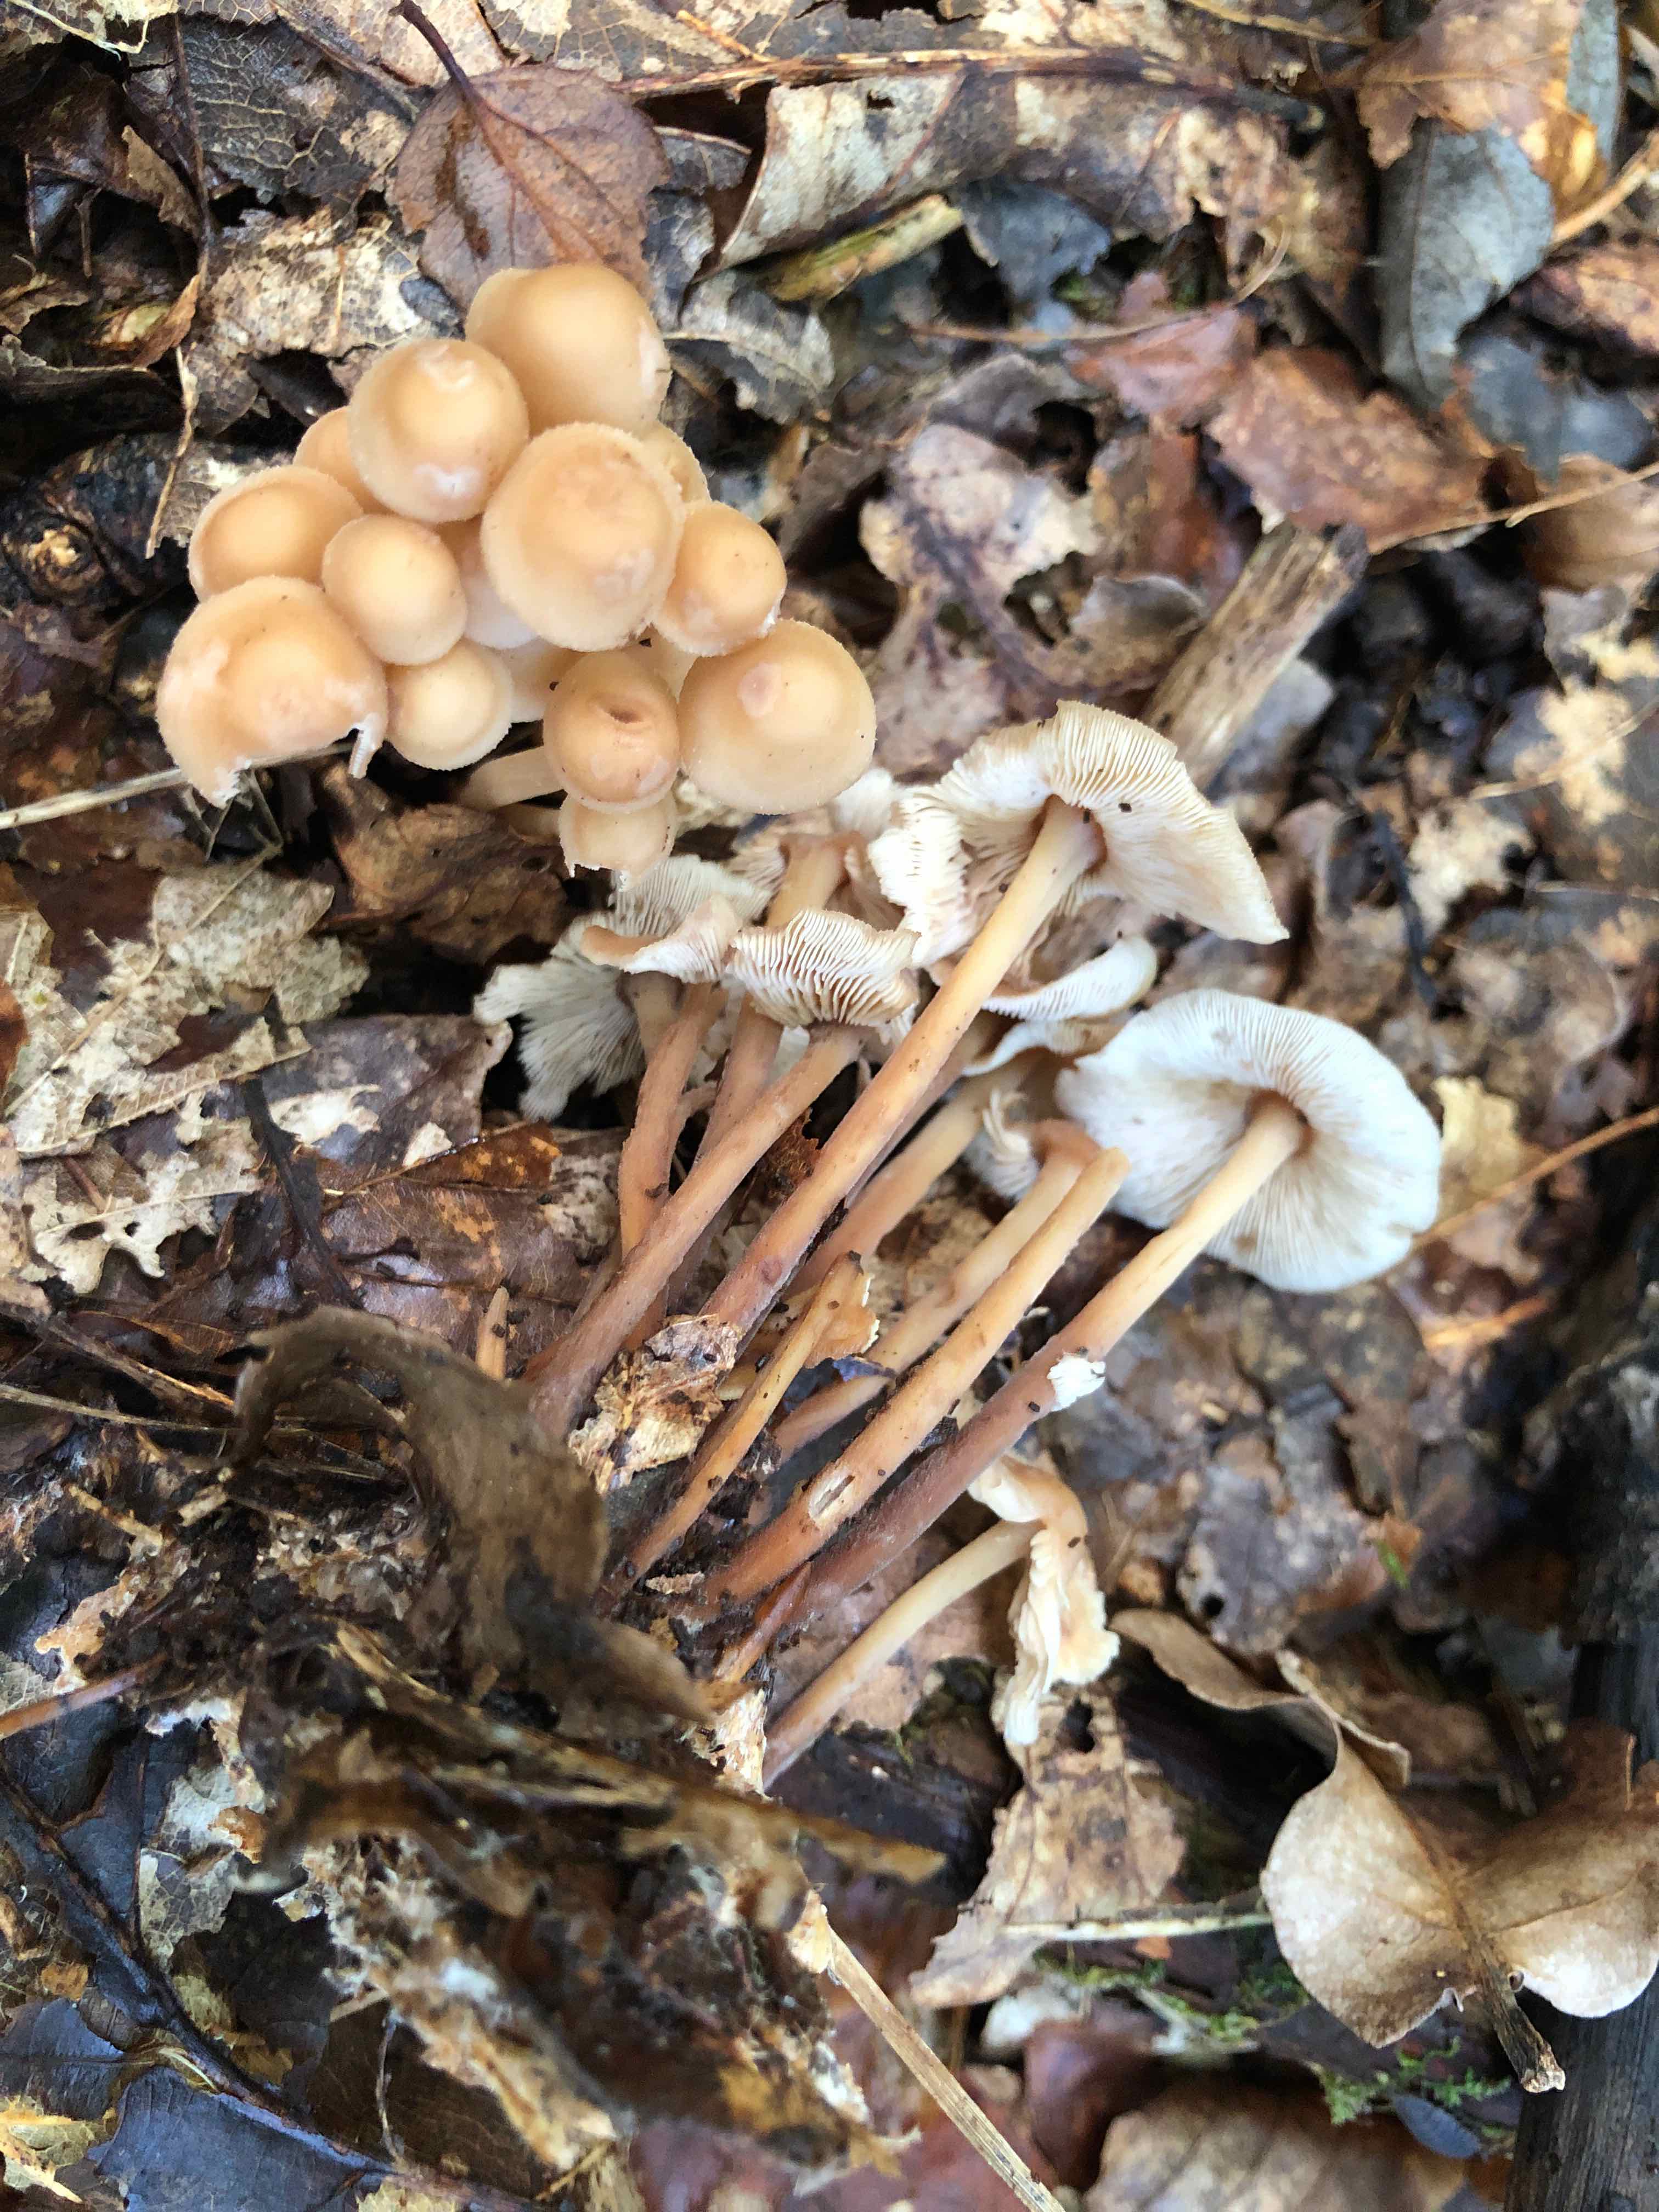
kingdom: Fungi
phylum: Basidiomycota
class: Agaricomycetes
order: Agaricales
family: Omphalotaceae
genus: Collybiopsis
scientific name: Collybiopsis confluens
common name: knippe-fladhat
